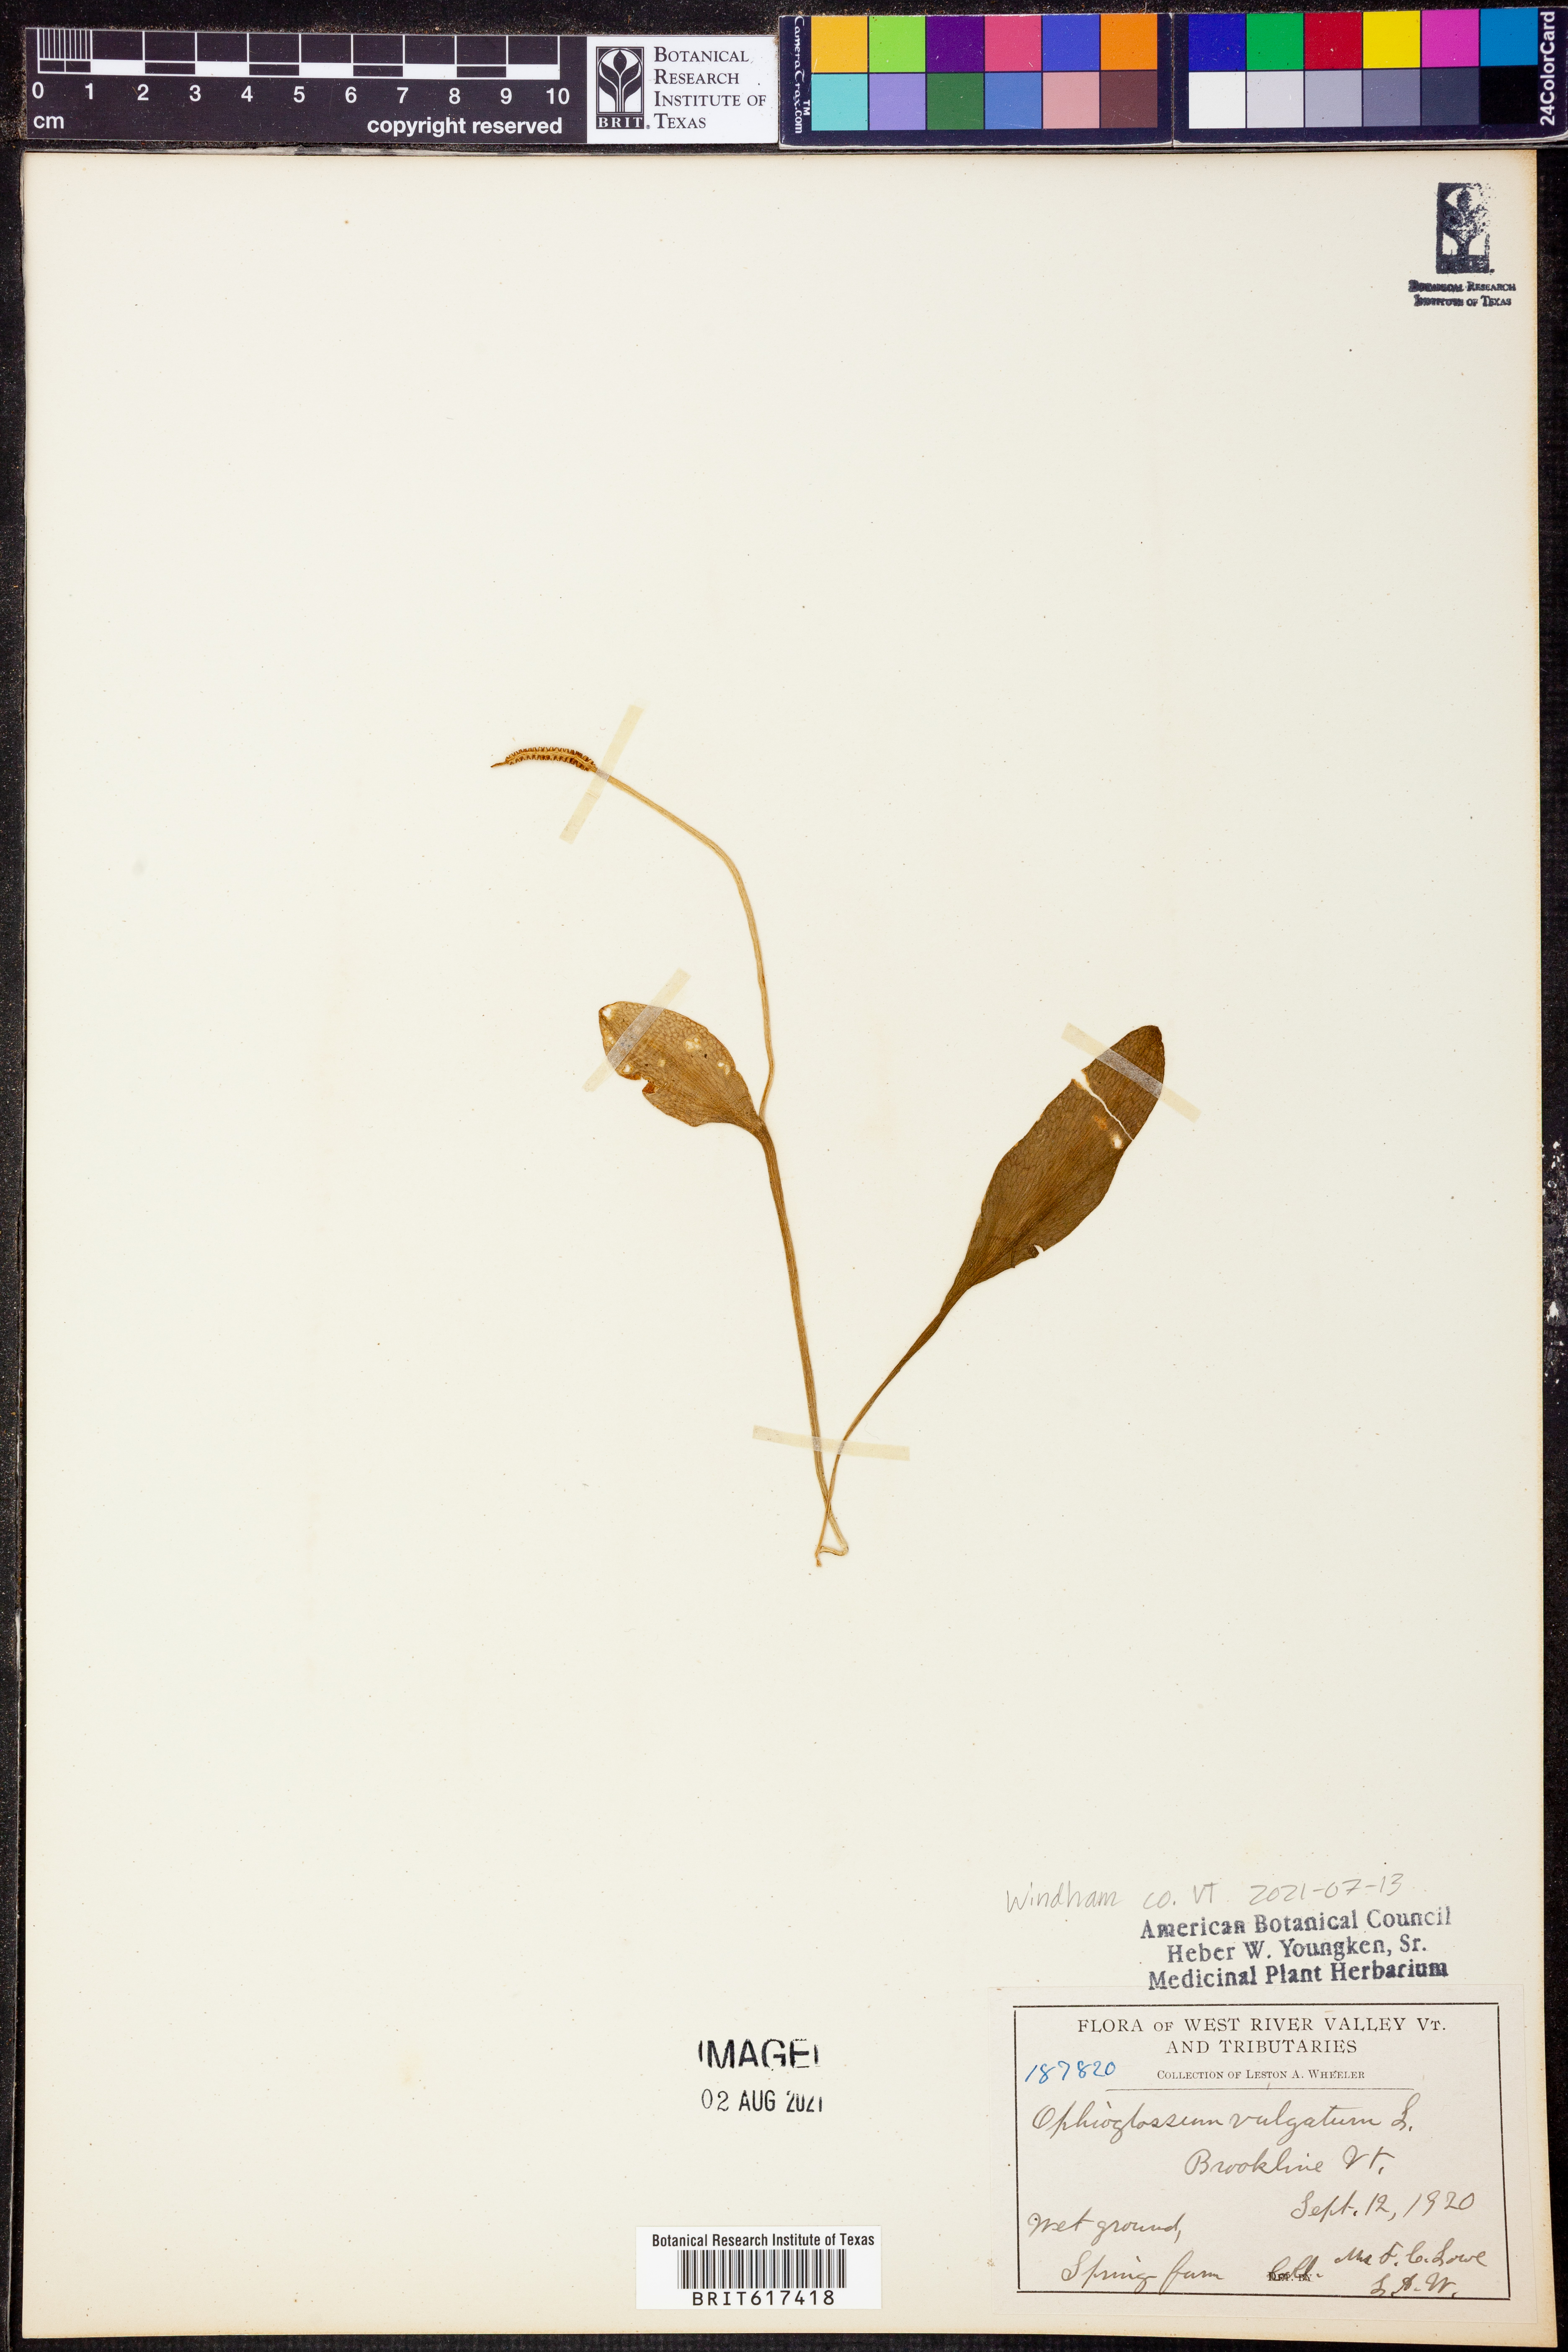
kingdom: Plantae
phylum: Tracheophyta
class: Polypodiopsida
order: Ophioglossales
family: Ophioglossaceae
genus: Ophioglossum
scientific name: Ophioglossum vulgatum
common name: Adder's-tongue
